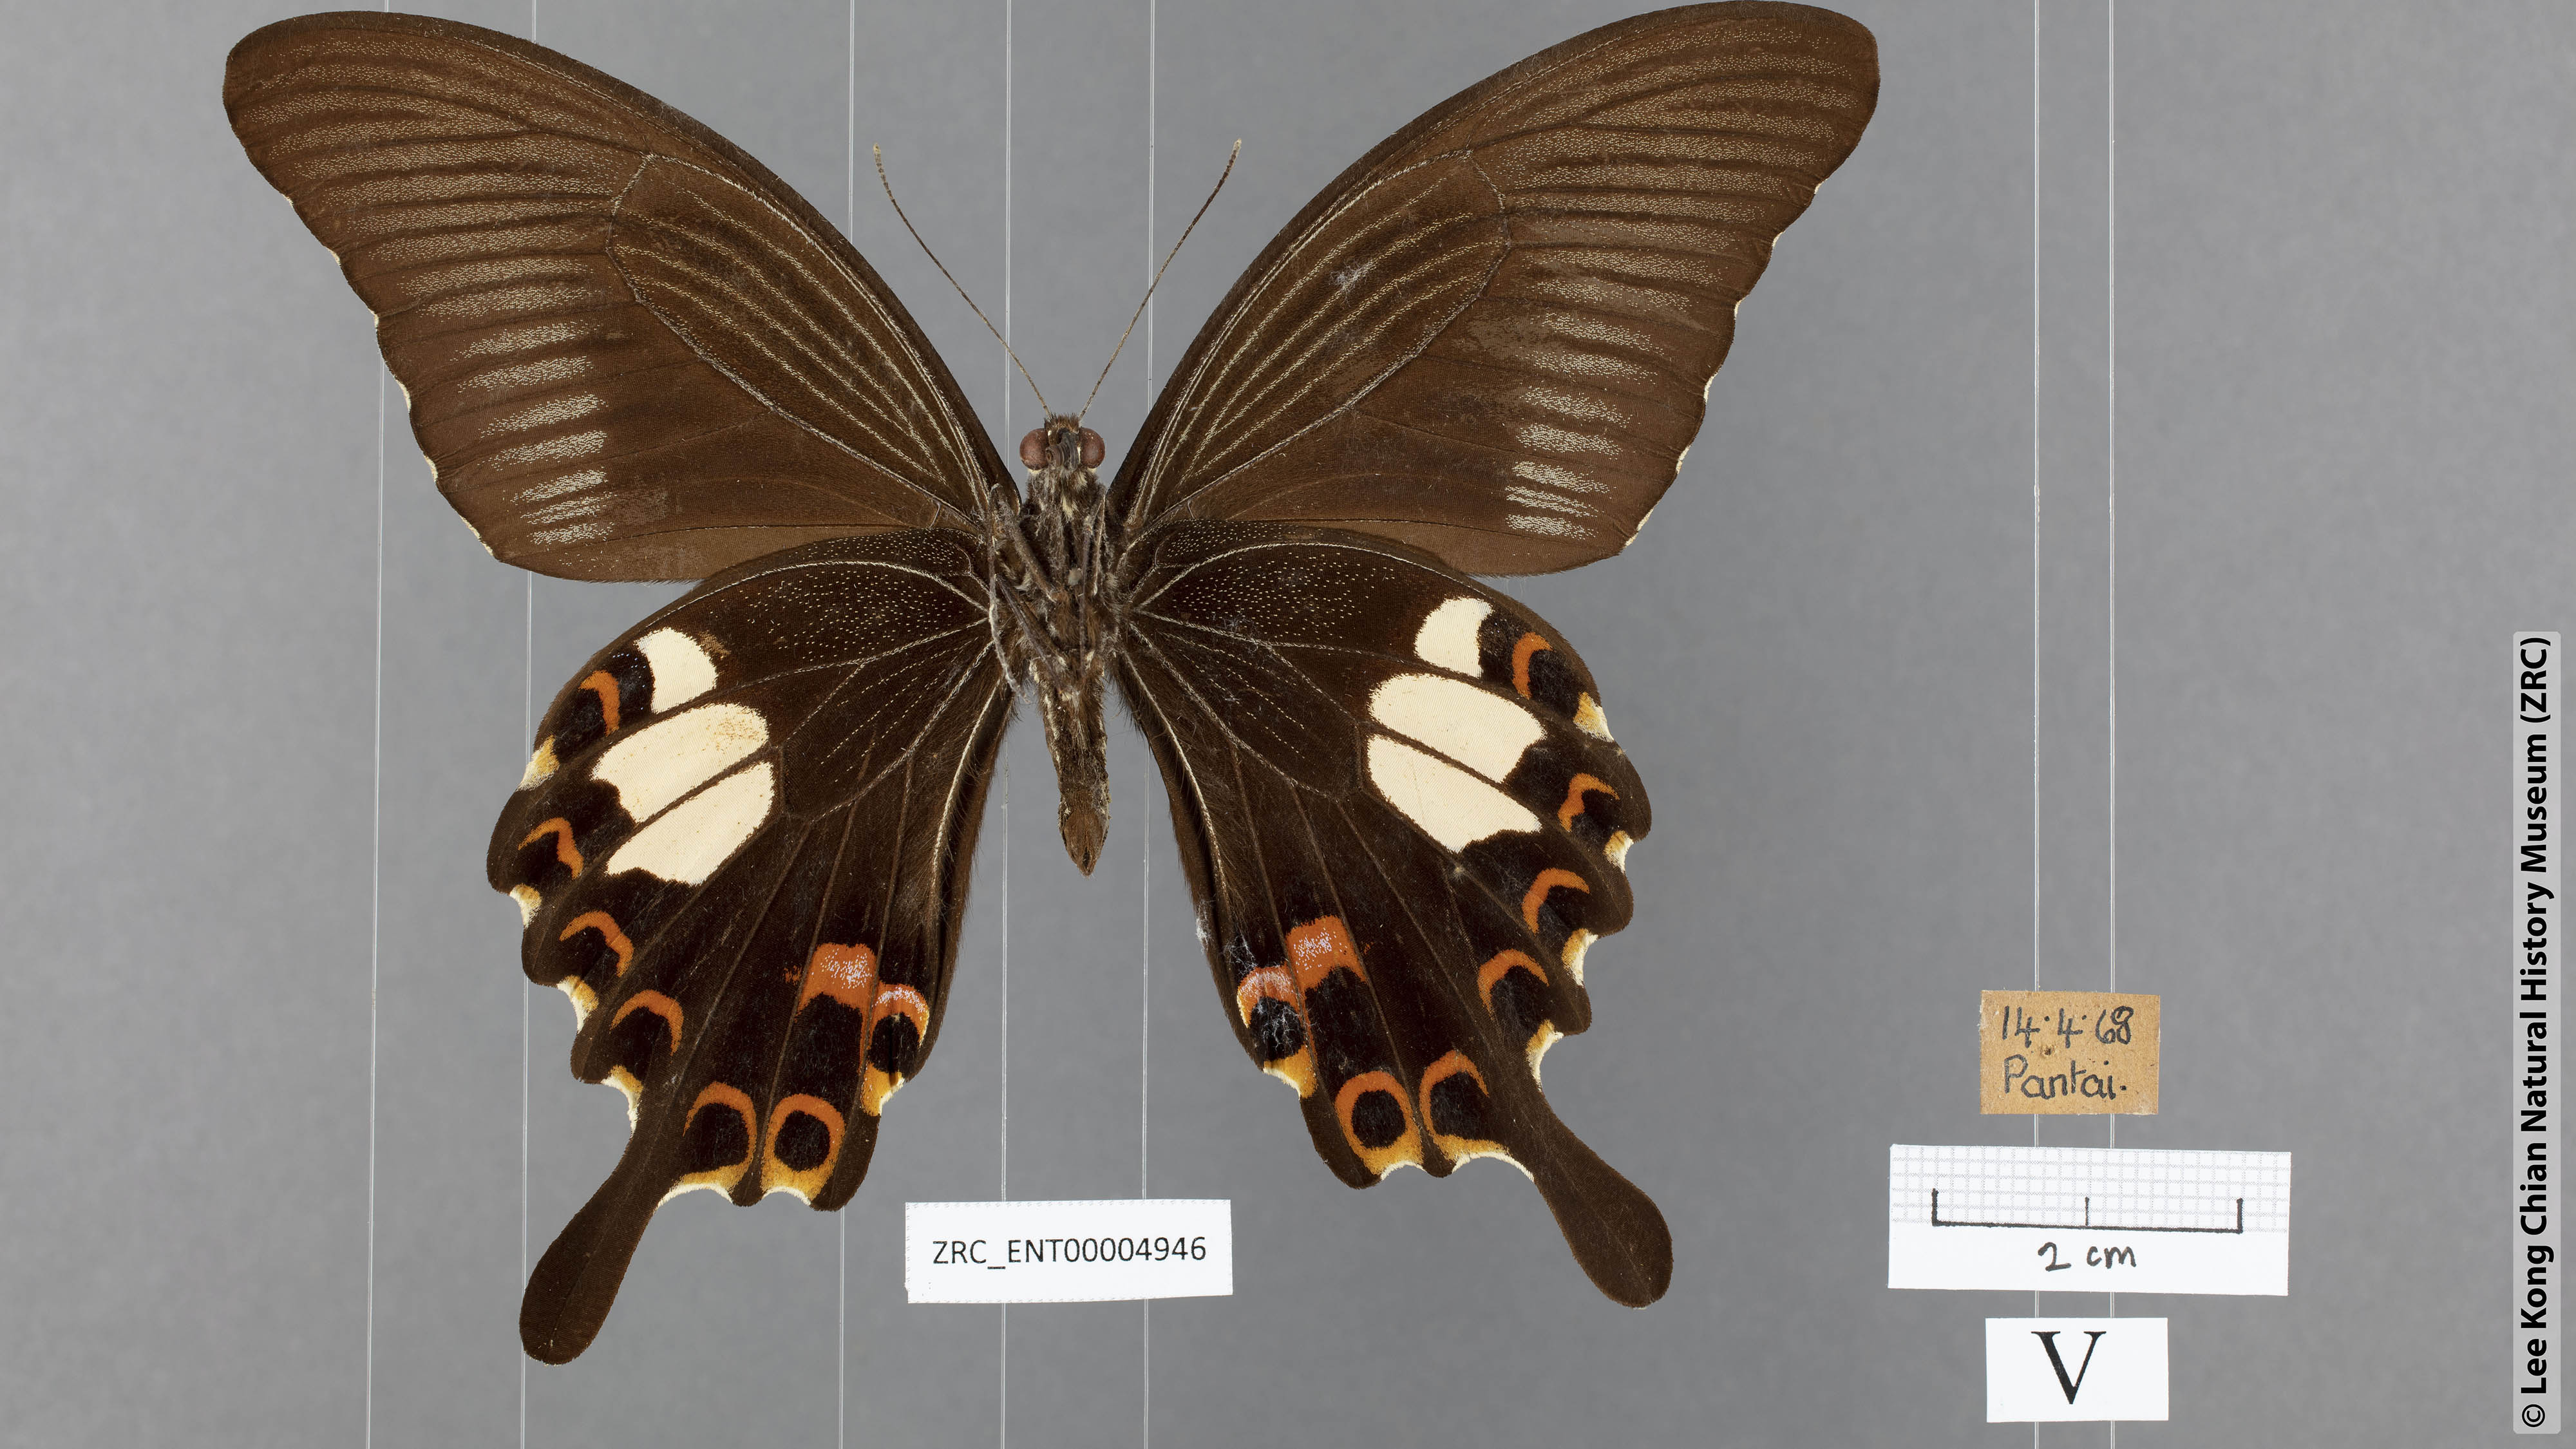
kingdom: Animalia
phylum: Arthropoda
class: Insecta
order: Lepidoptera
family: Papilionidae
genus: Papilio
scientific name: Papilio helenus
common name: Red helen
